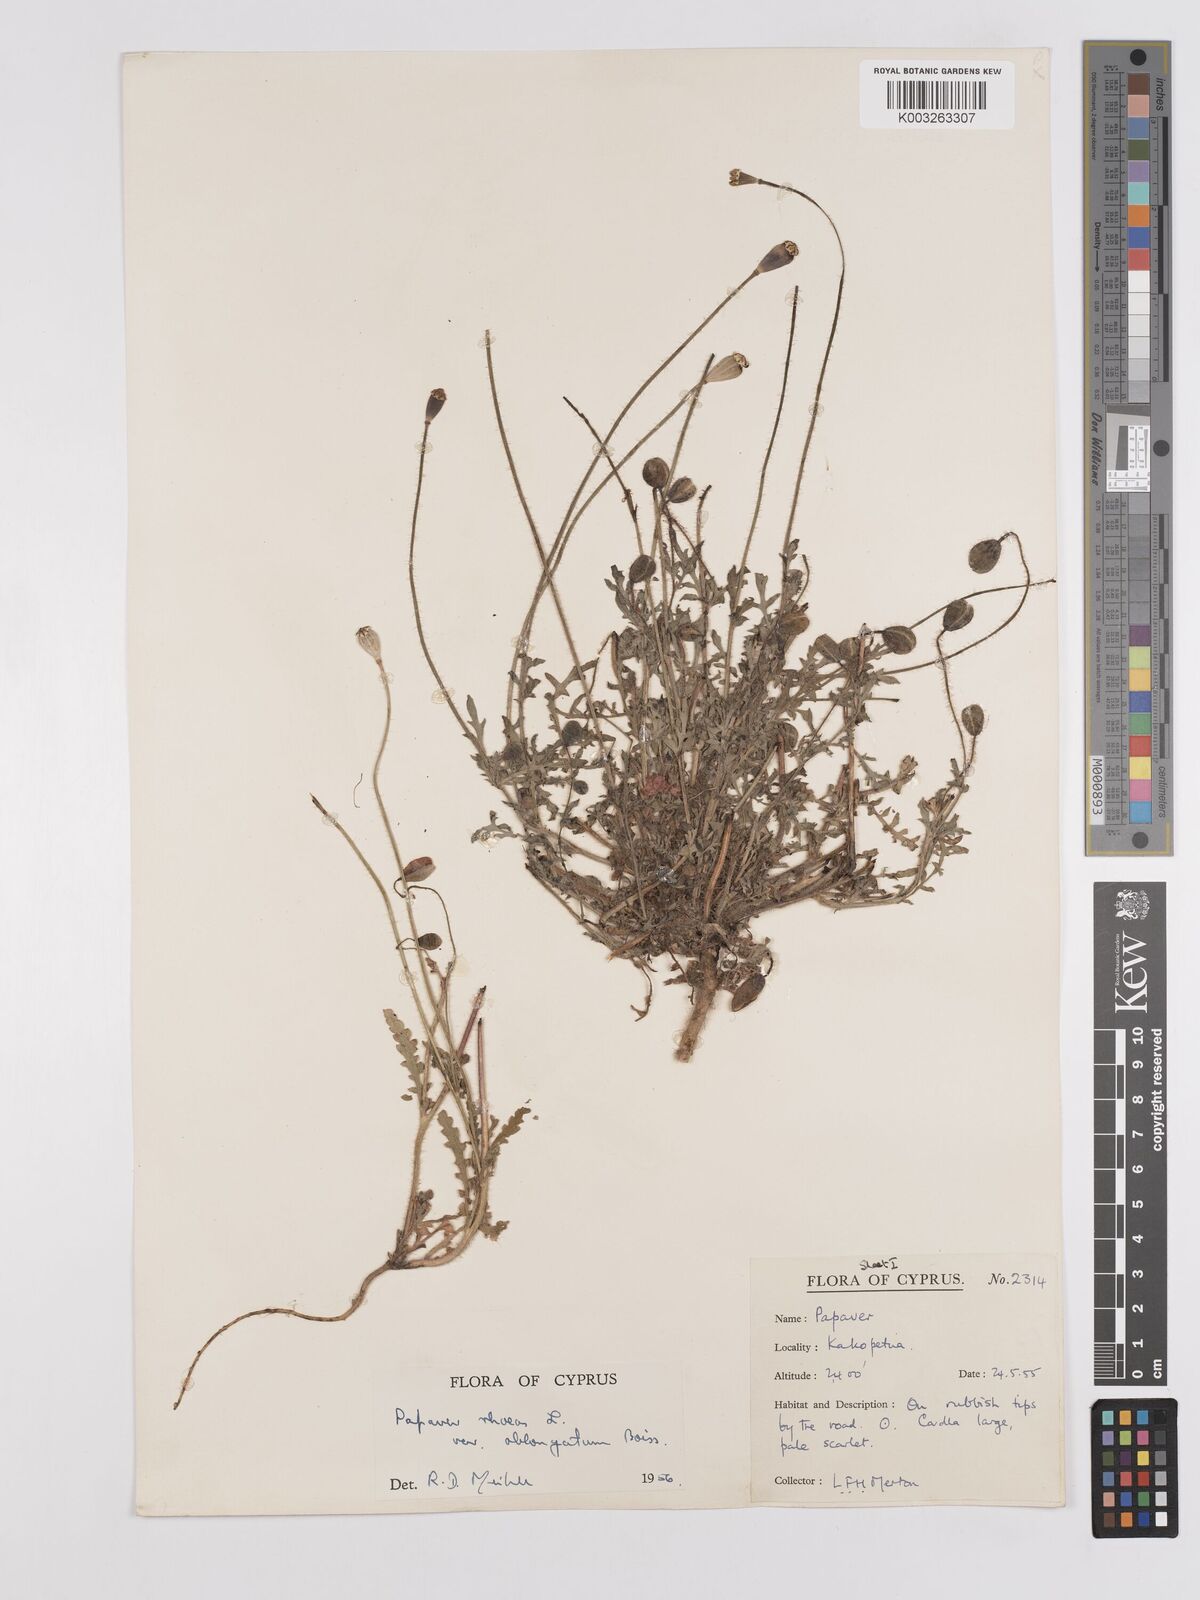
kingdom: Plantae
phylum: Tracheophyta
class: Magnoliopsida
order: Ranunculales
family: Papaveraceae
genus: Papaver
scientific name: Papaver rhoeas
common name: Corn poppy
